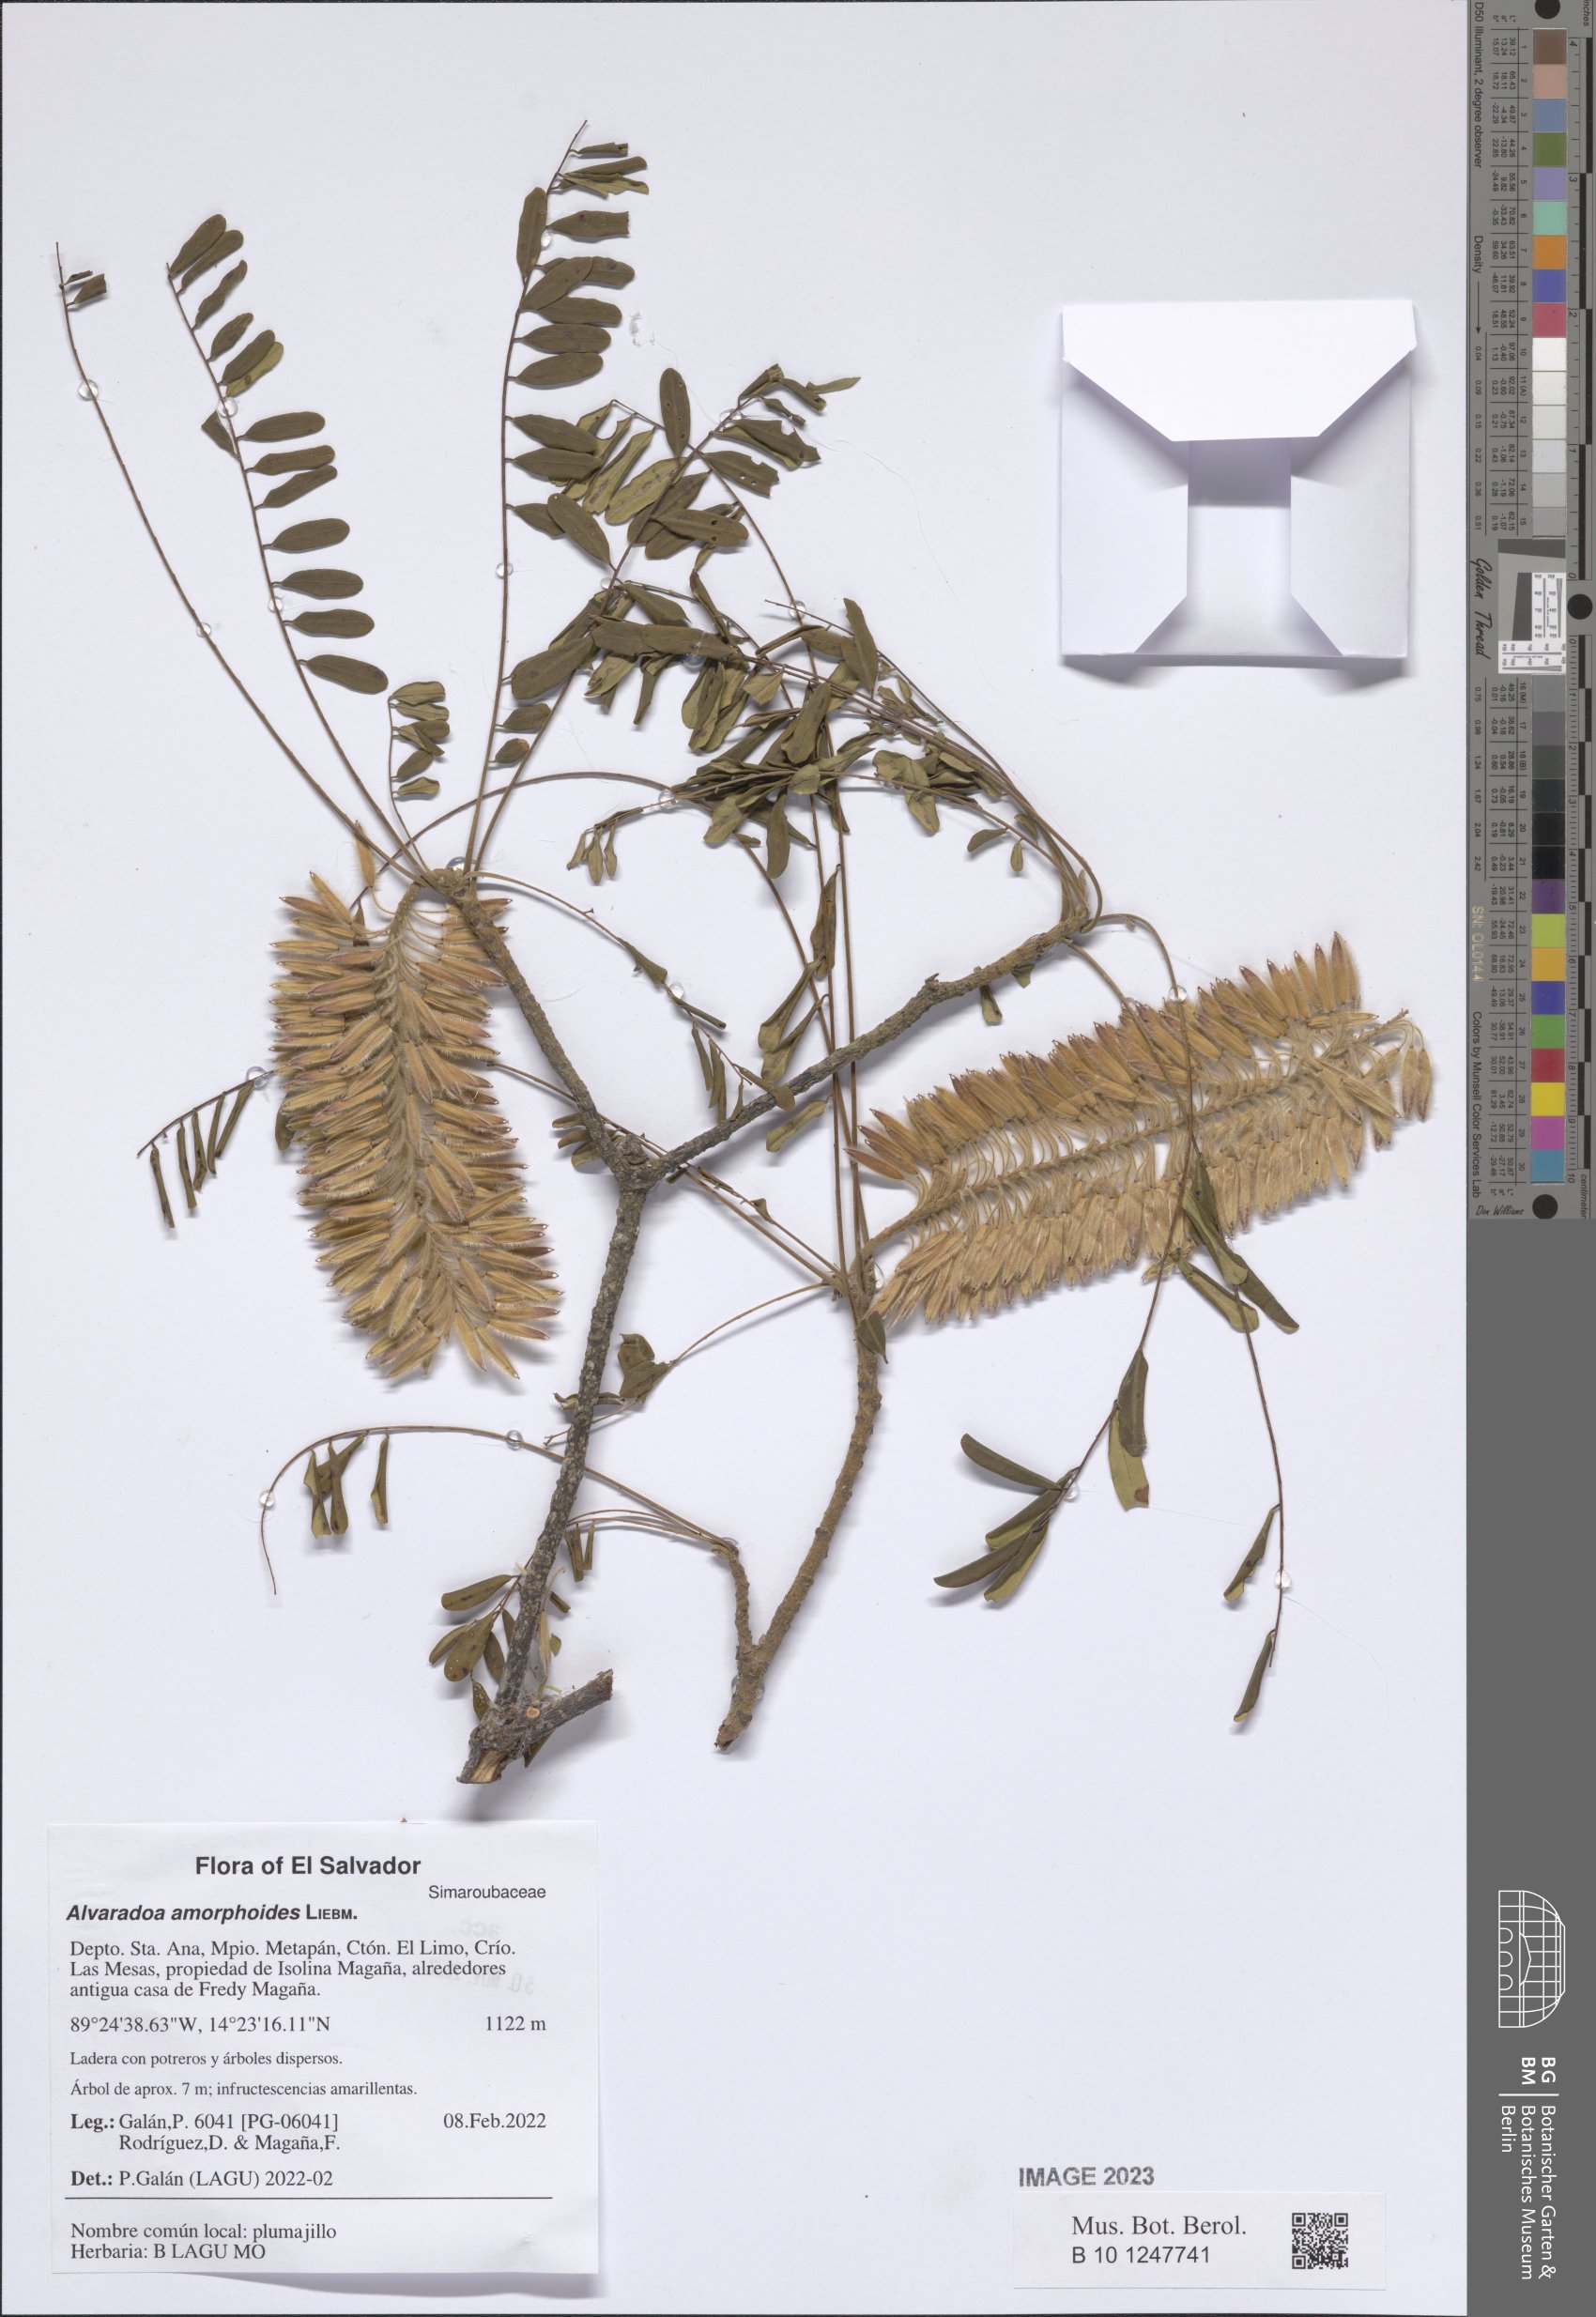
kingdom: Plantae
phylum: Tracheophyta
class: Magnoliopsida
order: Picramniales
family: Picramniaceae
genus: Alvaradoa
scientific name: Alvaradoa amorphoides
